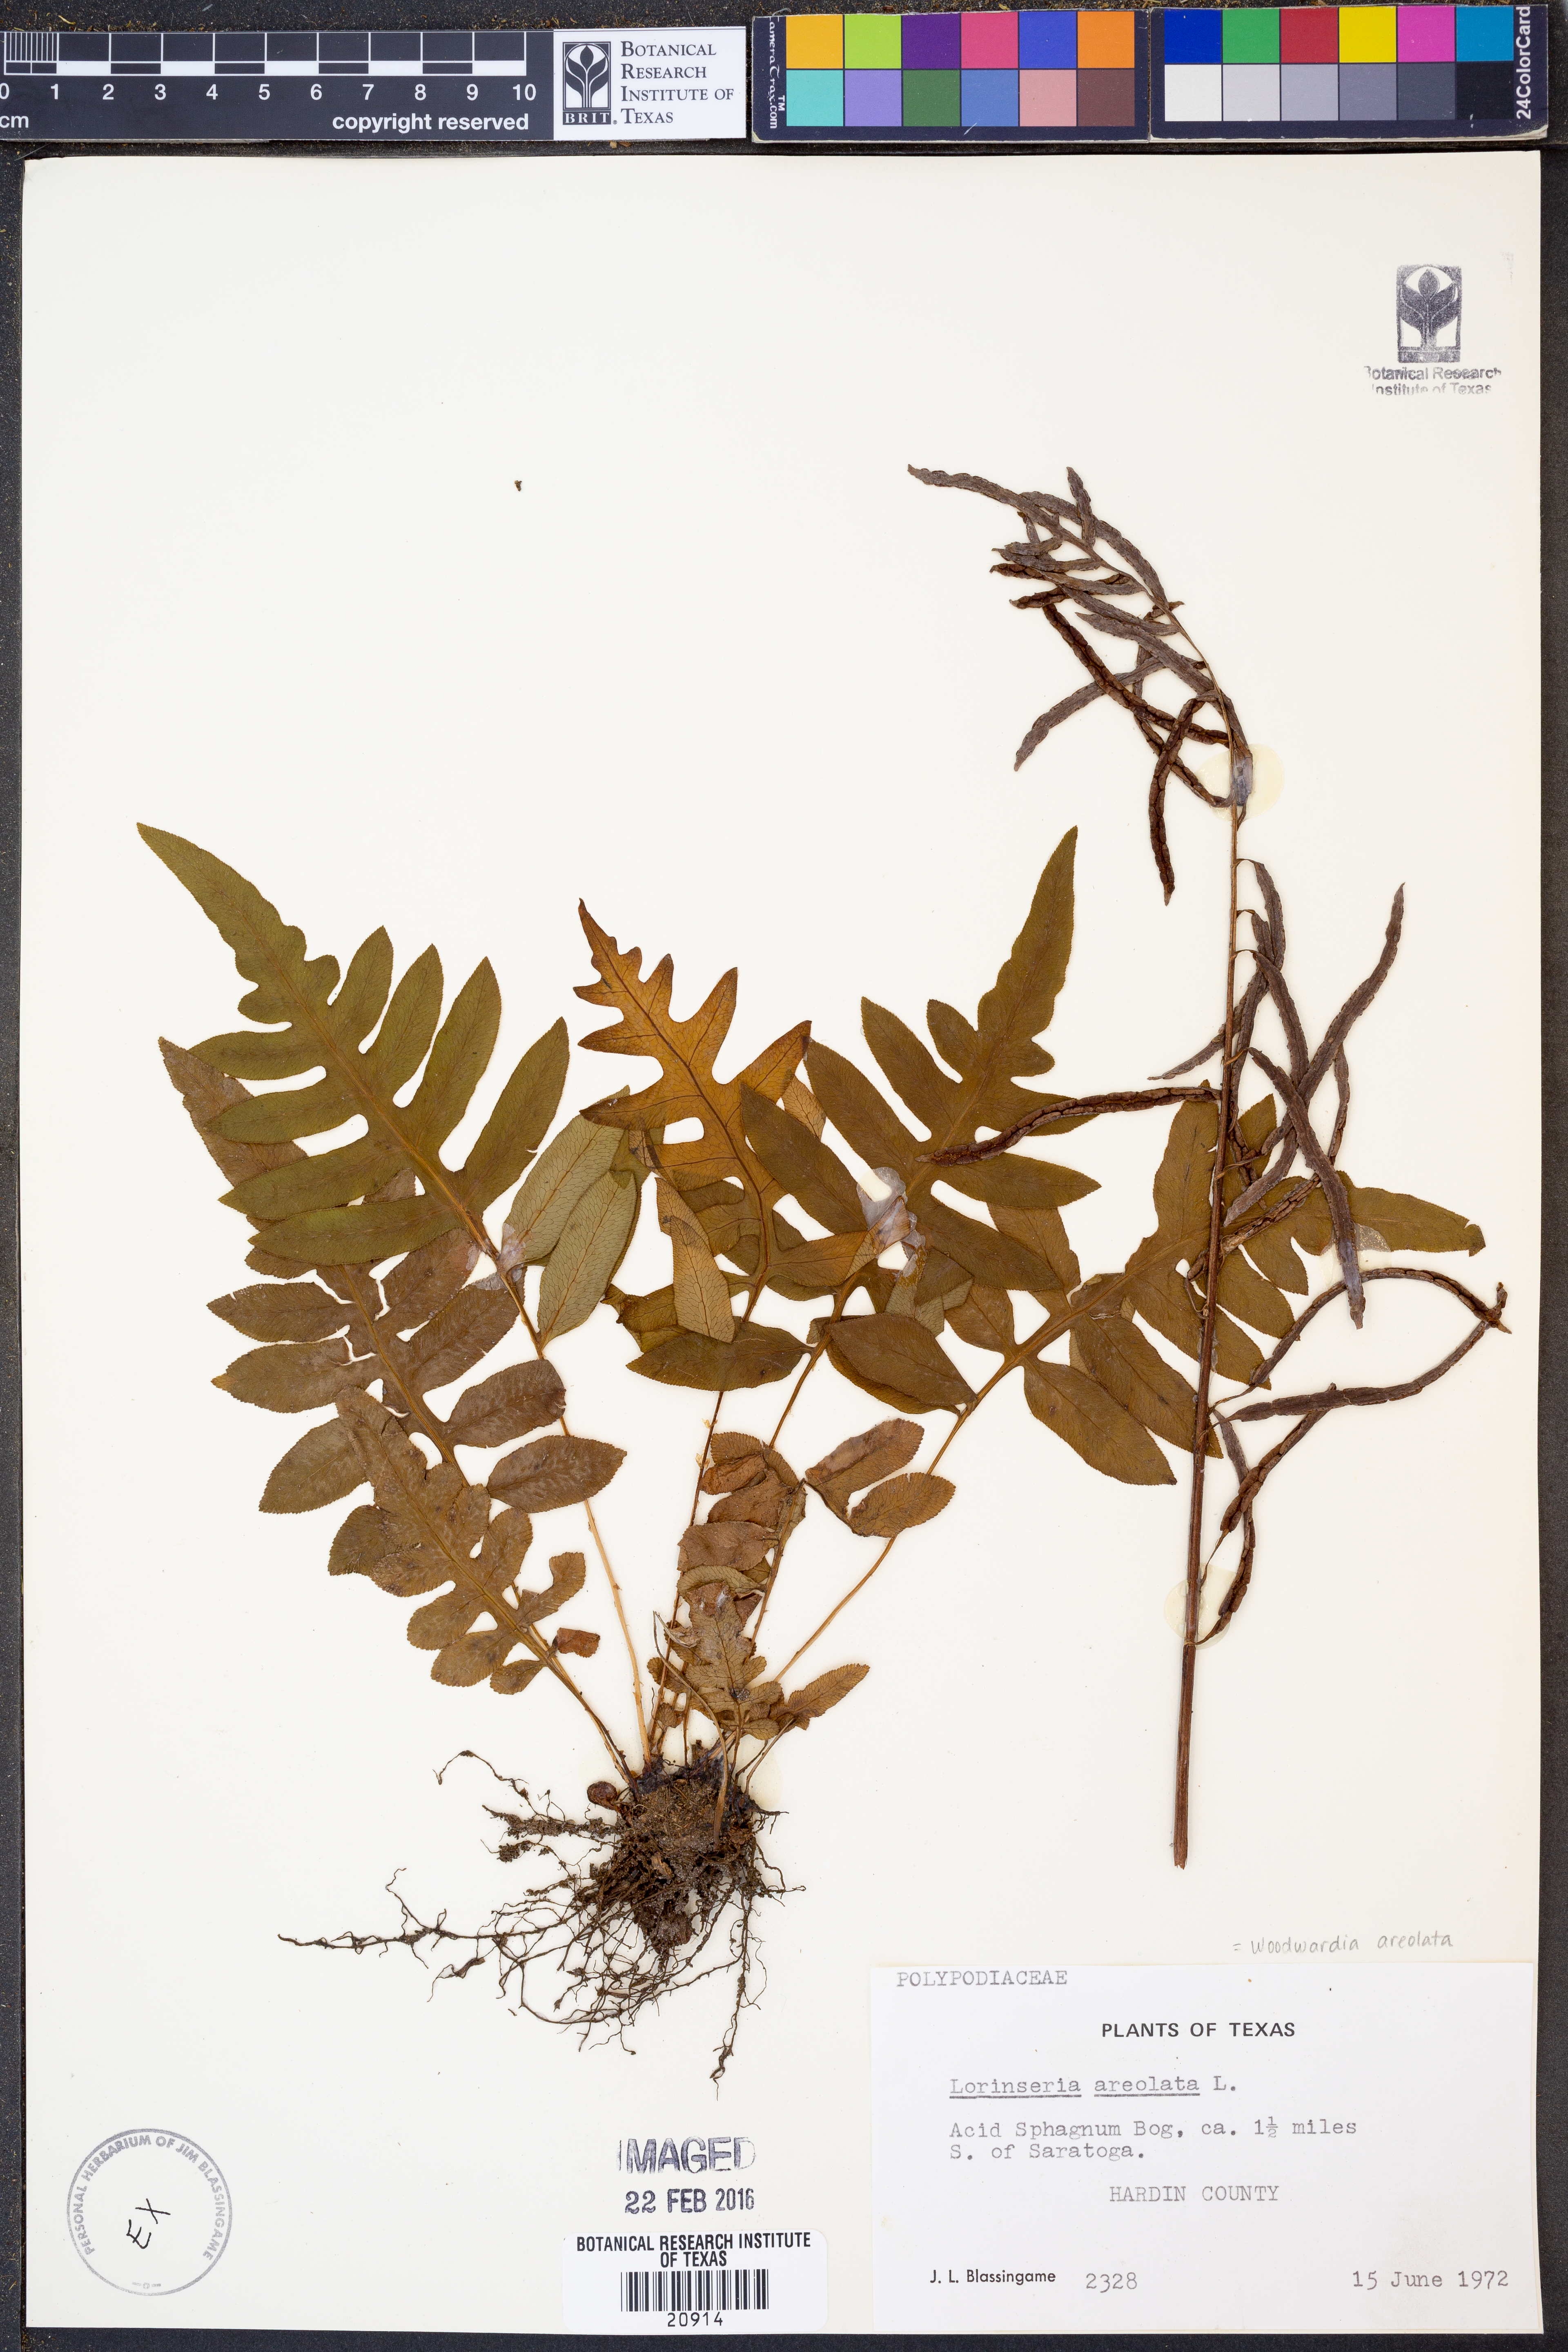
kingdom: Plantae
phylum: Tracheophyta
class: Polypodiopsida
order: Polypodiales
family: Blechnaceae
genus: Lorinseria
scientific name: Lorinseria areolata
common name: Dwarf chain fern
